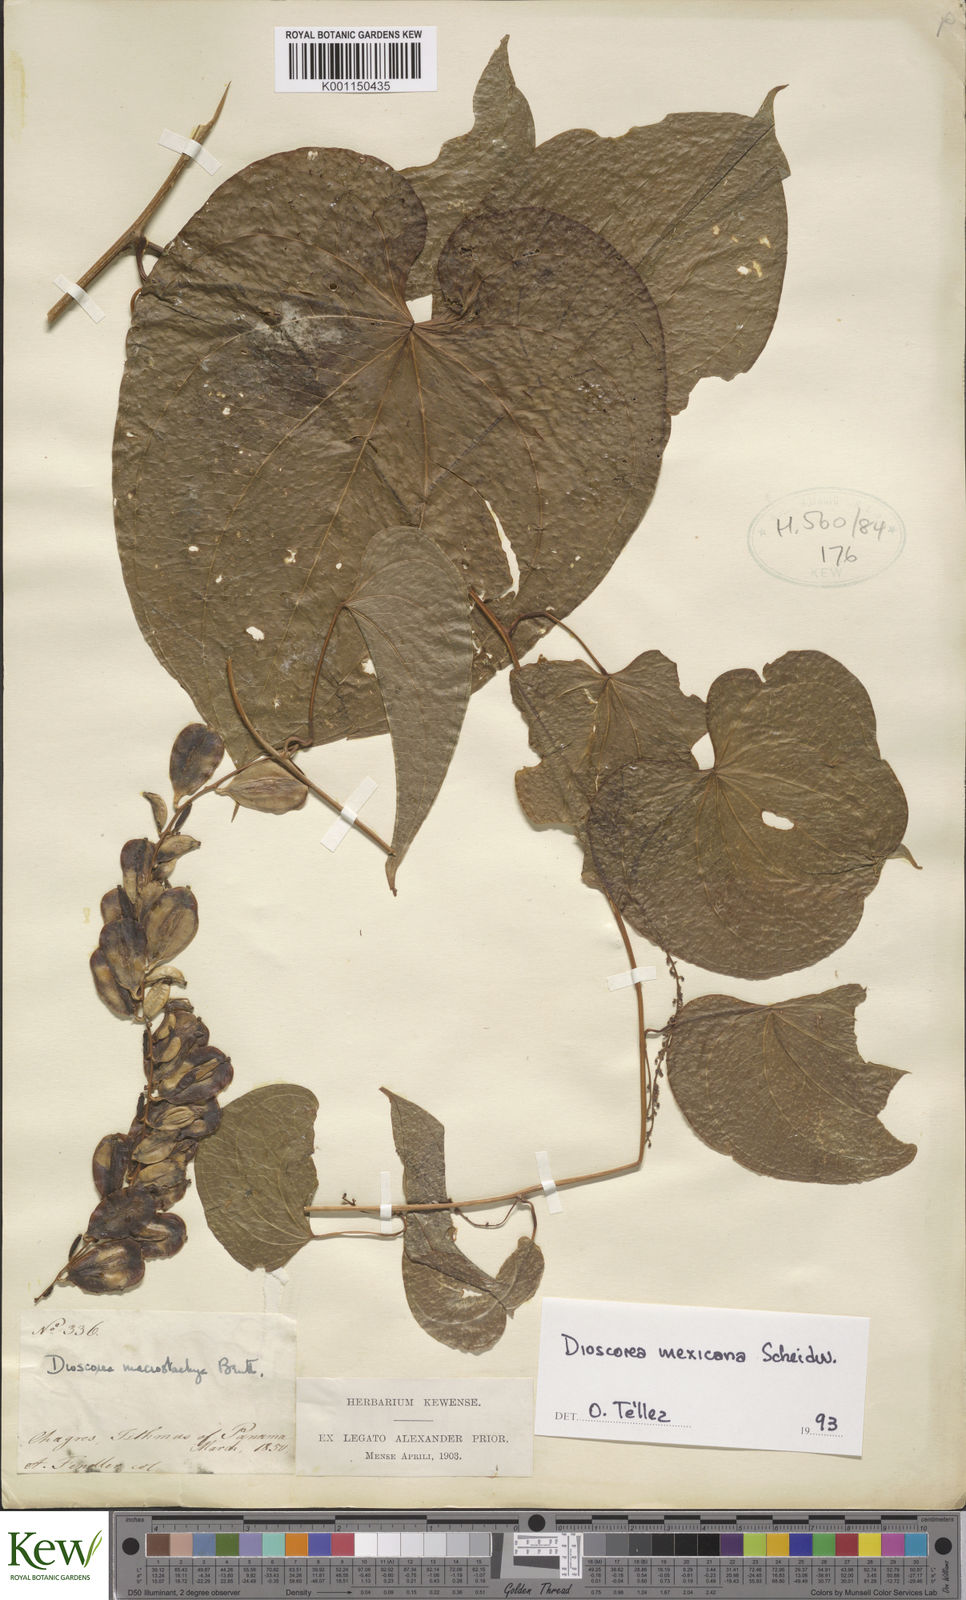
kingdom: Plantae
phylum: Tracheophyta
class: Liliopsida
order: Dioscoreales
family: Dioscoreaceae
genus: Dioscorea
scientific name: Dioscorea mexicana
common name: Mexican yam
